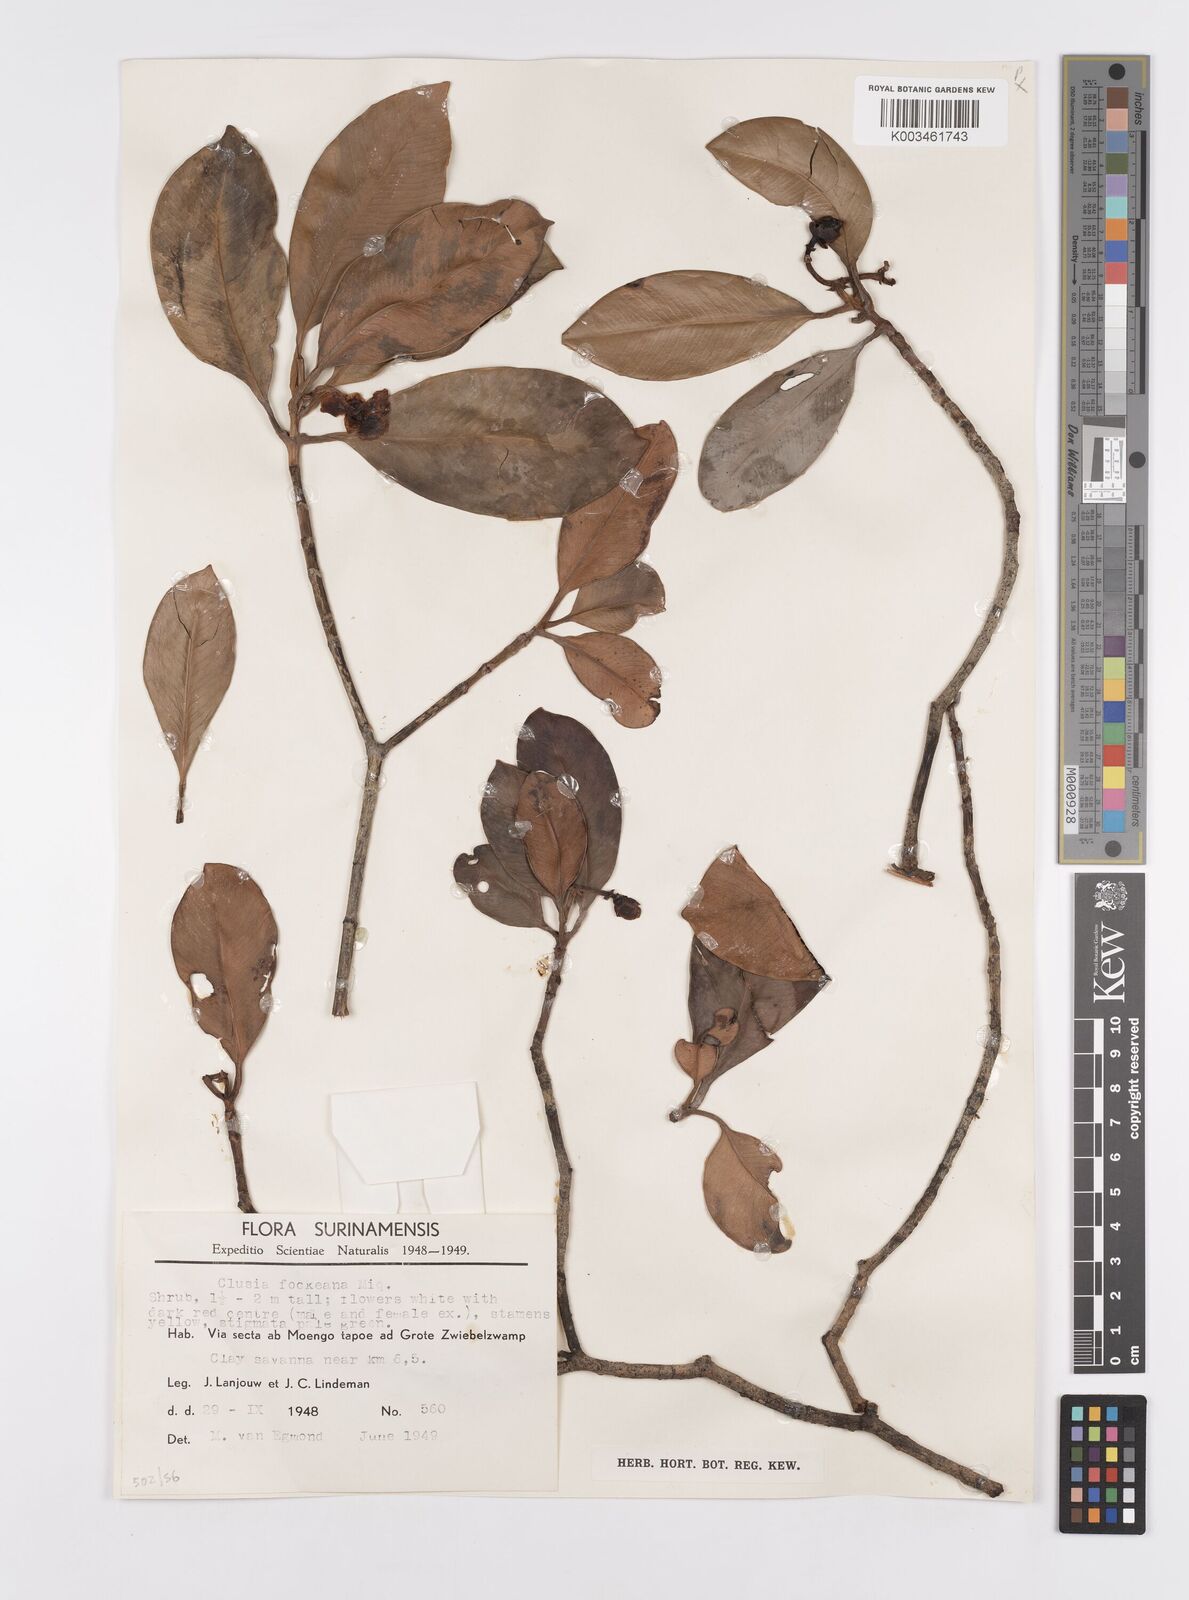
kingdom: Plantae
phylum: Tracheophyta
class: Magnoliopsida
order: Malpighiales
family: Clusiaceae
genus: Clusia
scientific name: Clusia fockeana
